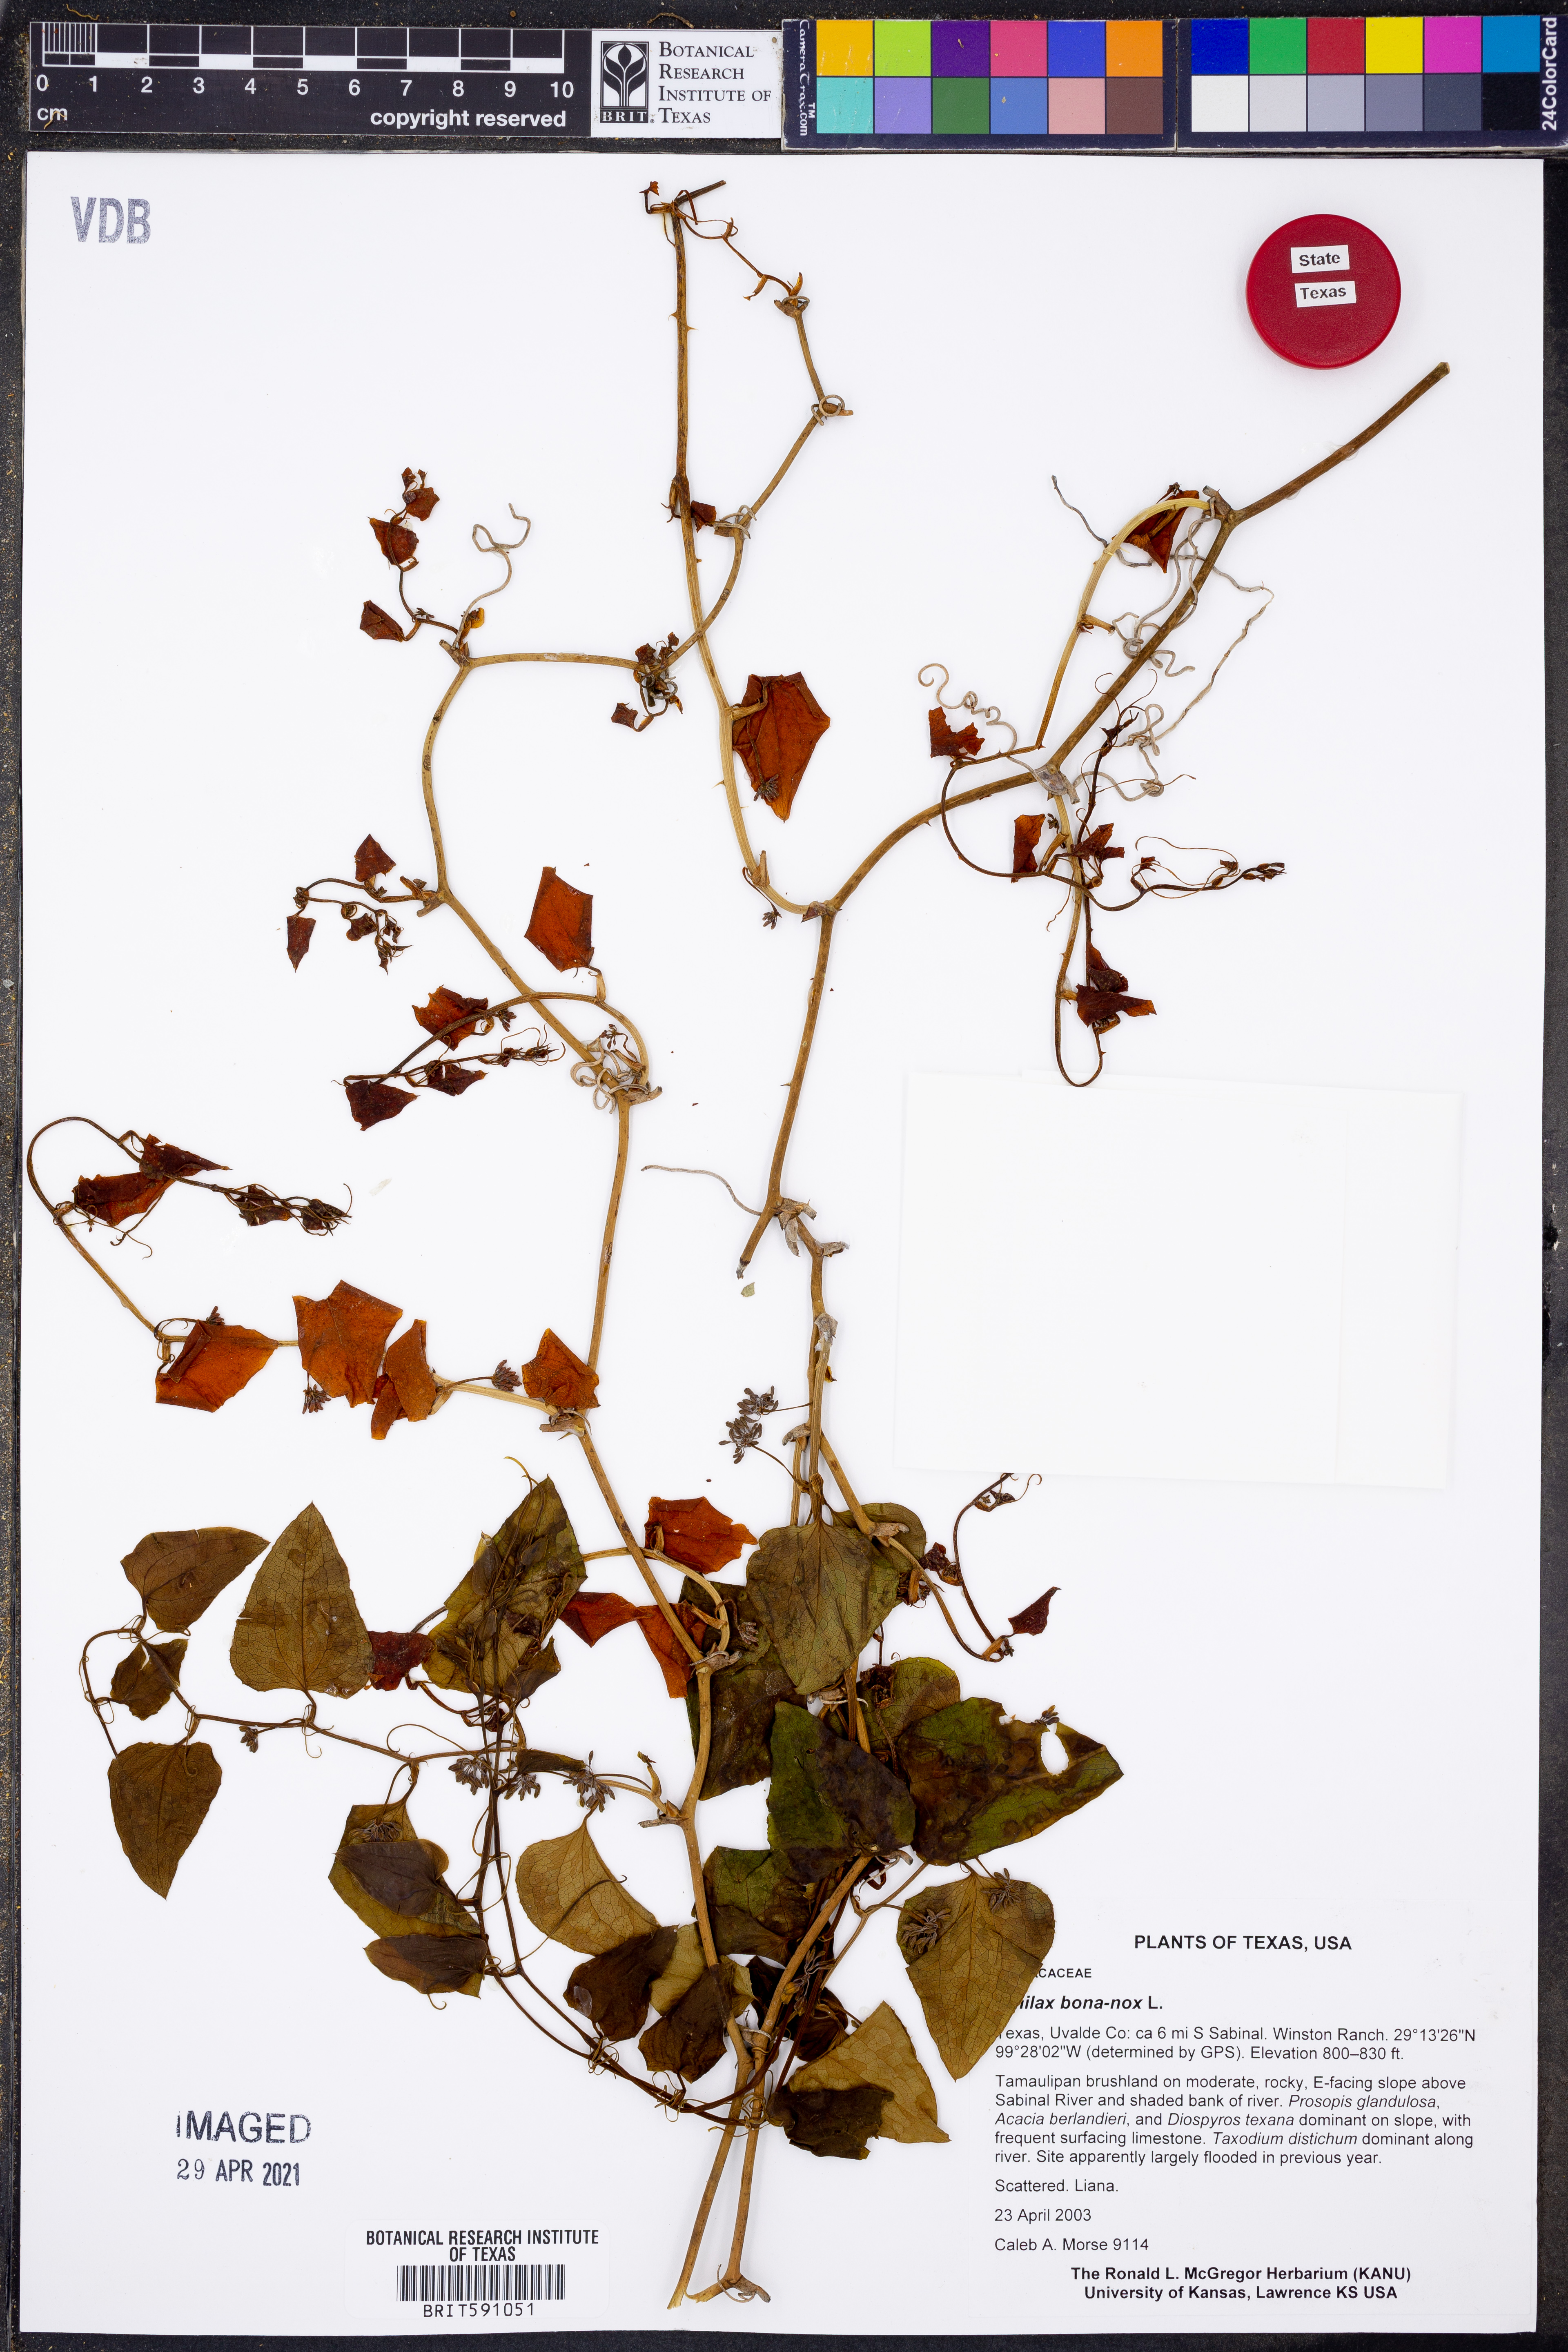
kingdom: Plantae
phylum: Tracheophyta
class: Liliopsida
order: Liliales
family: Smilacaceae
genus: Smilax
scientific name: Smilax bona-nox
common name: Catbrier
